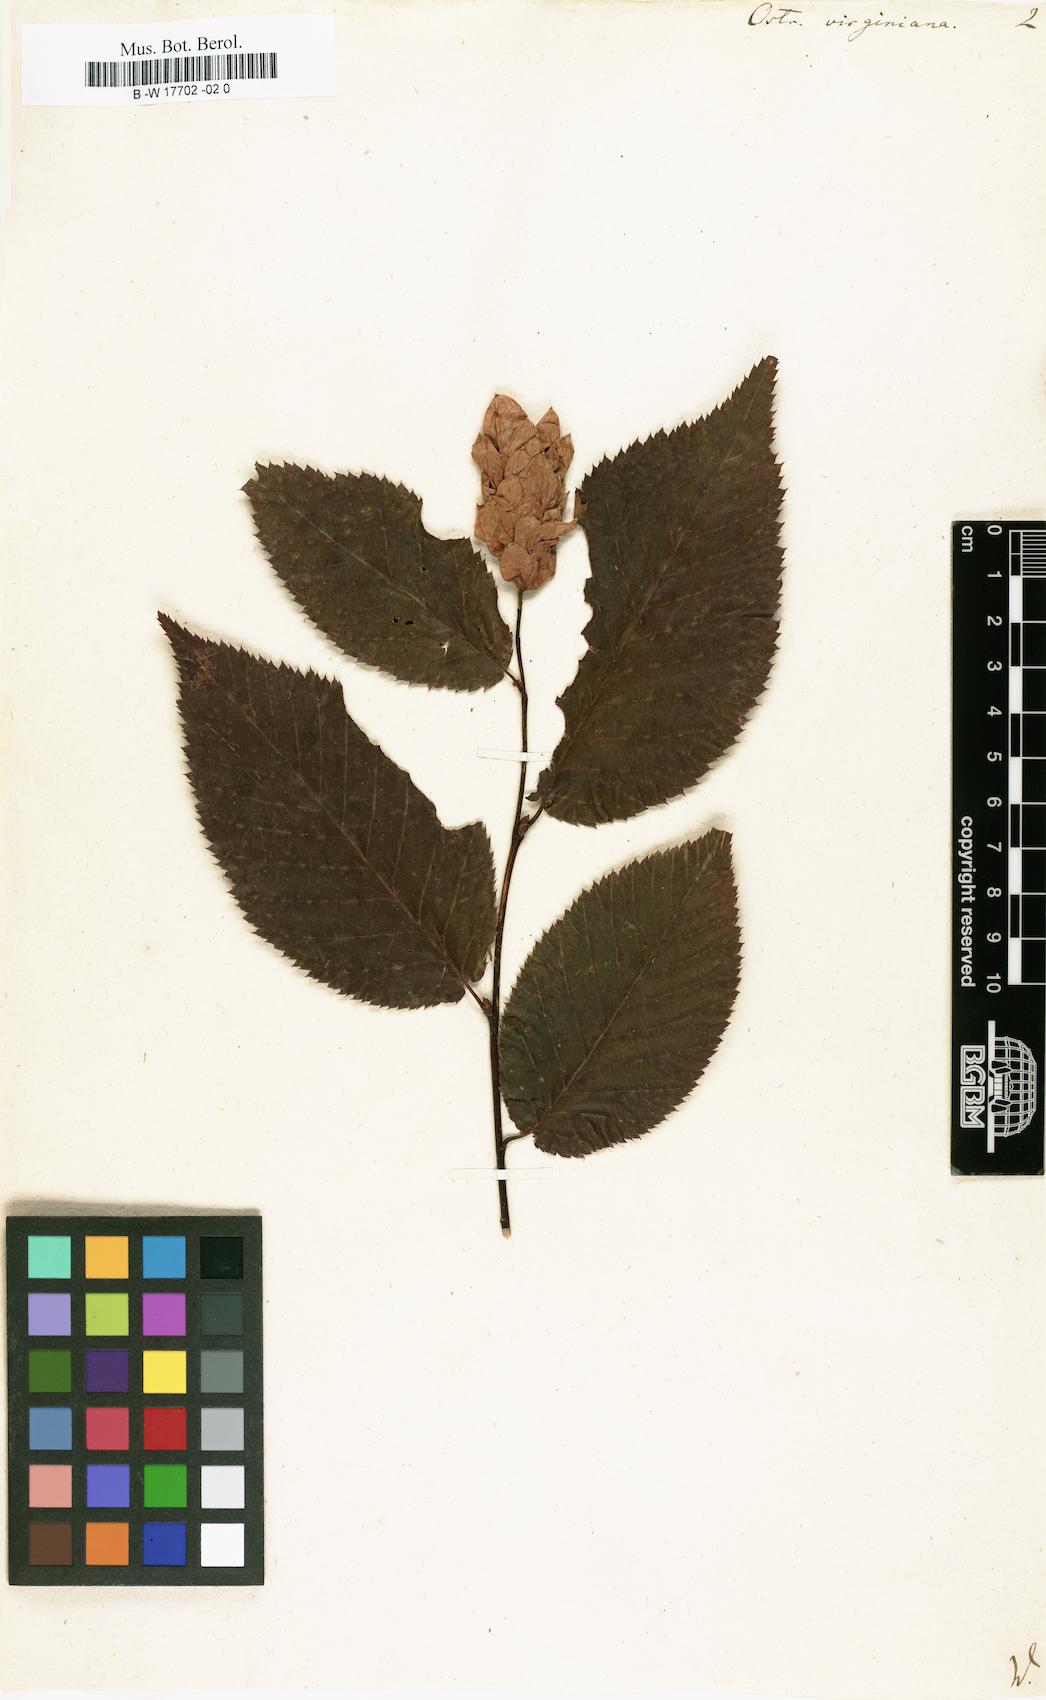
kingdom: Plantae
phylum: Tracheophyta
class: Magnoliopsida
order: Fagales
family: Betulaceae
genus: Ostrya
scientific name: Ostrya virginiana
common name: Ironwood
